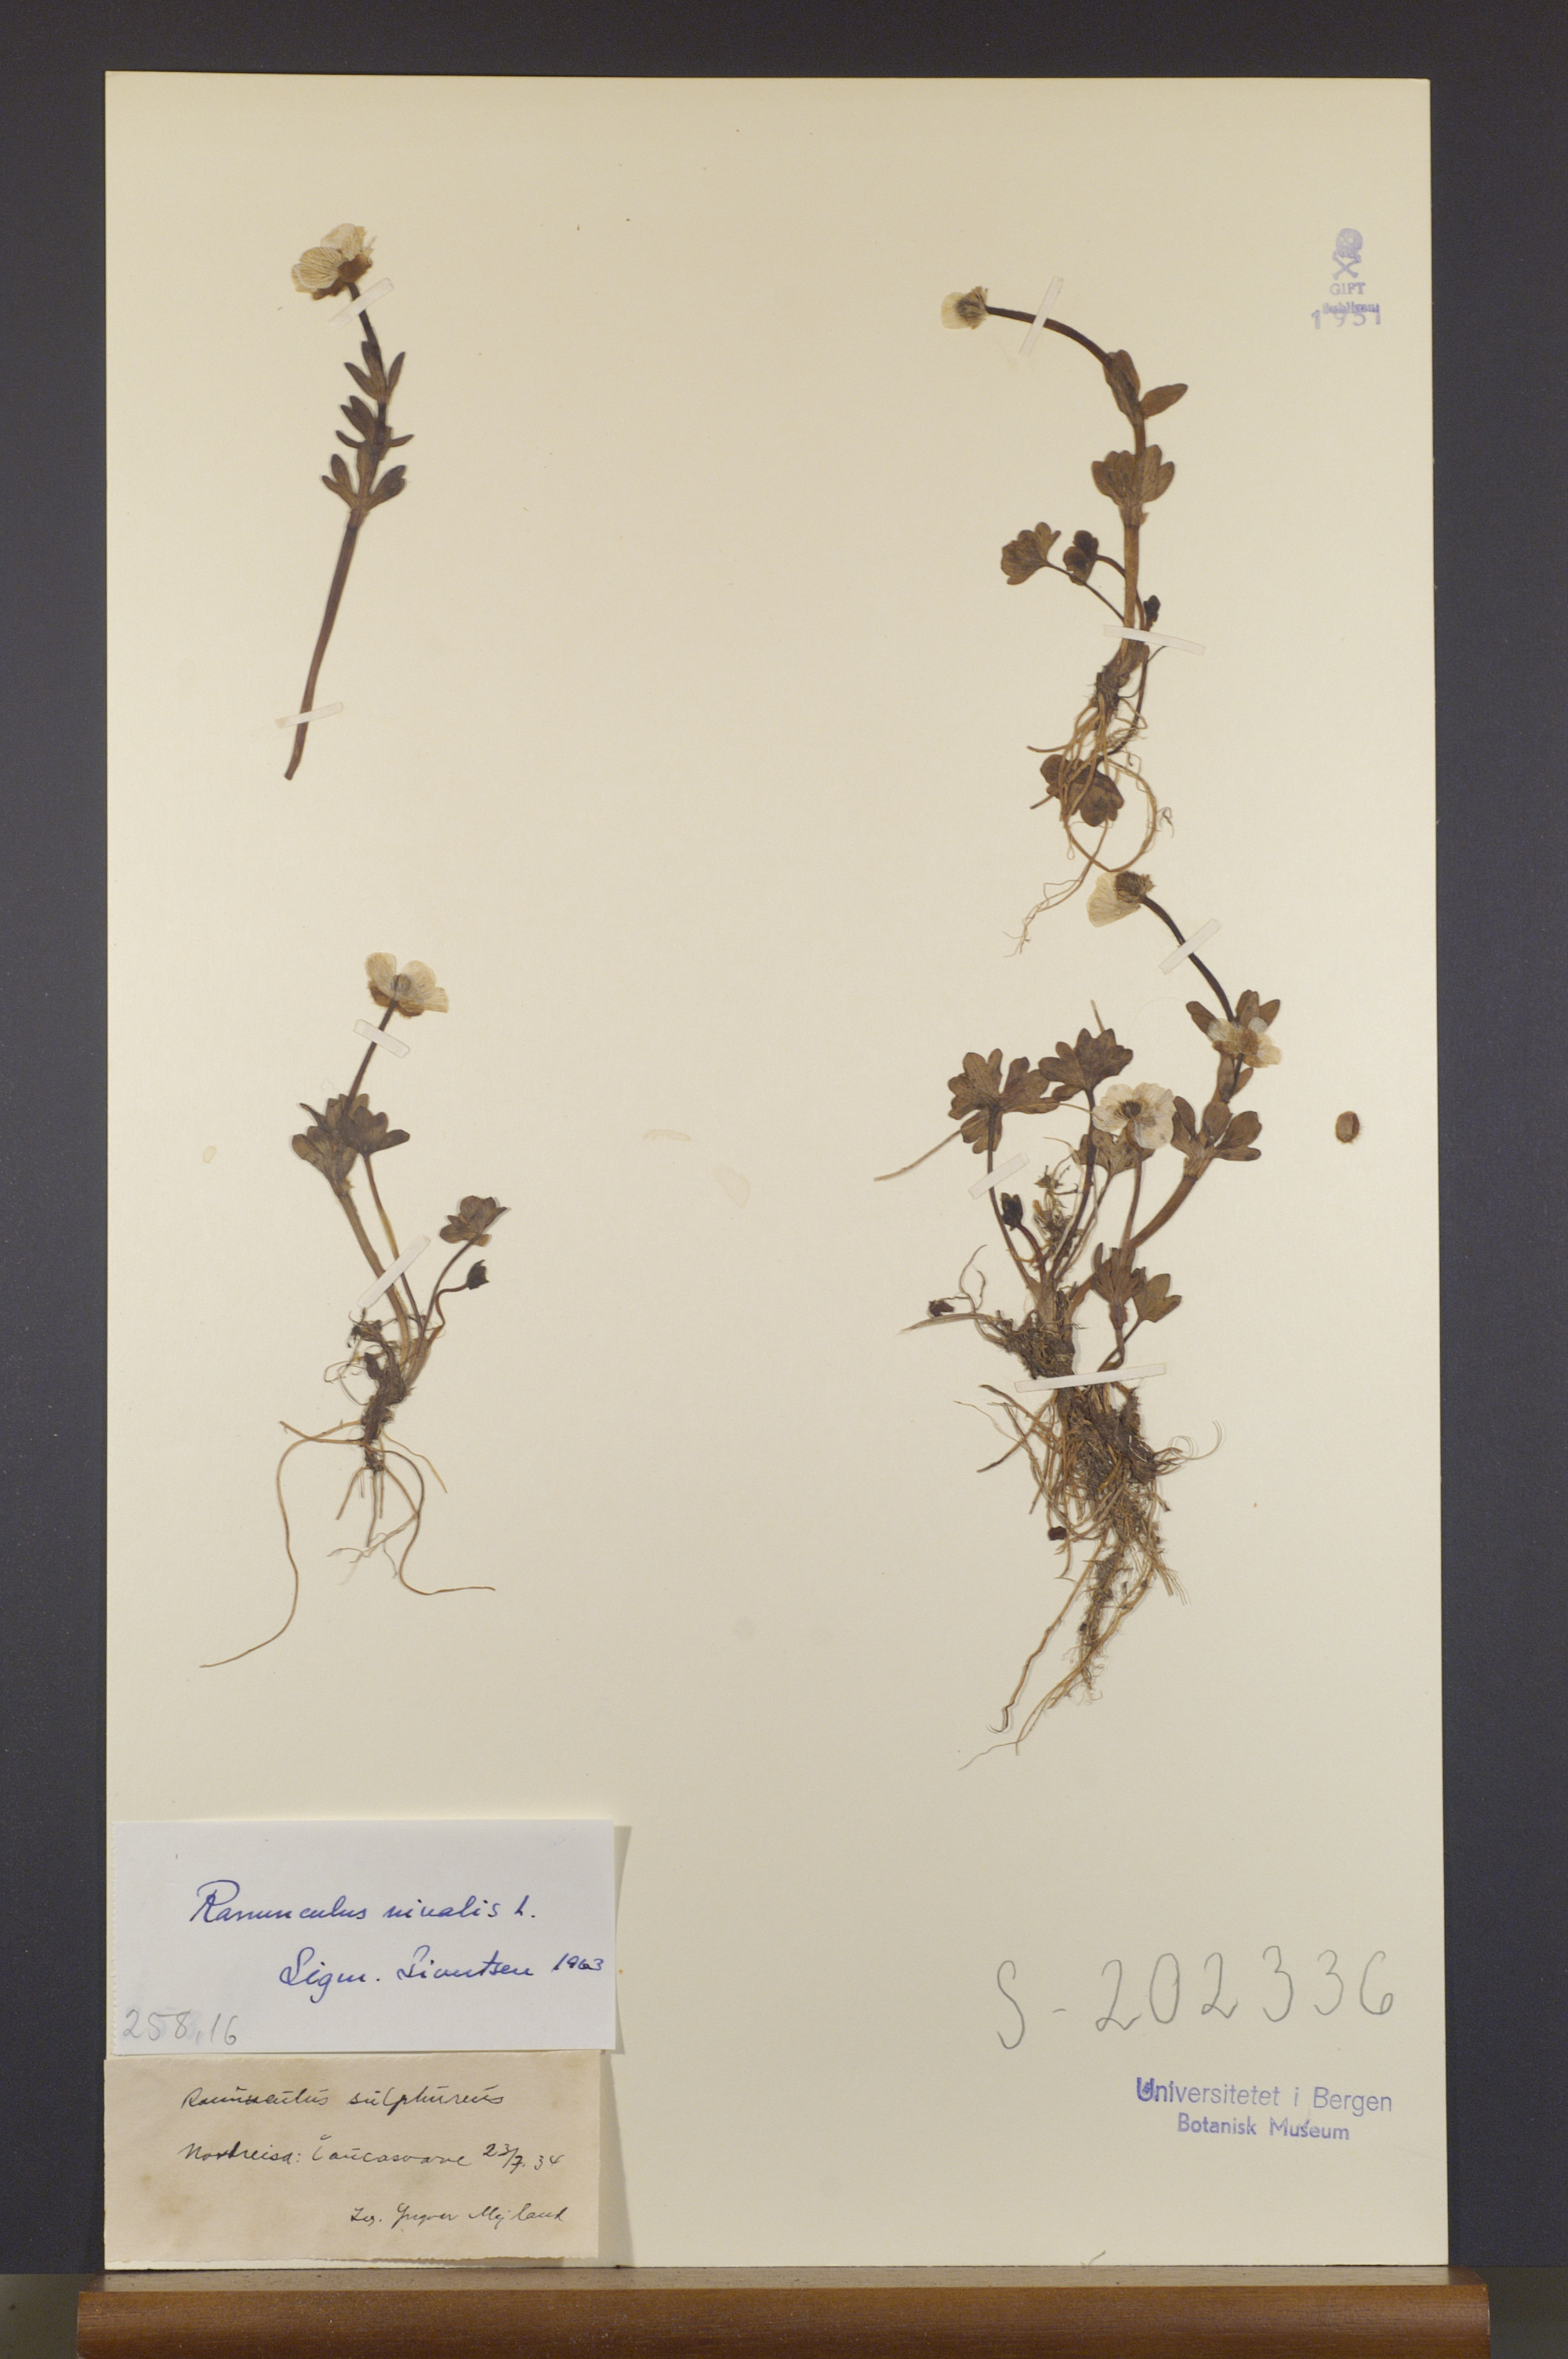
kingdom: Plantae
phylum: Tracheophyta
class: Magnoliopsida
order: Ranunculales
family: Ranunculaceae
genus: Ranunculus
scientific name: Ranunculus nivalis
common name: Snow buttercup
